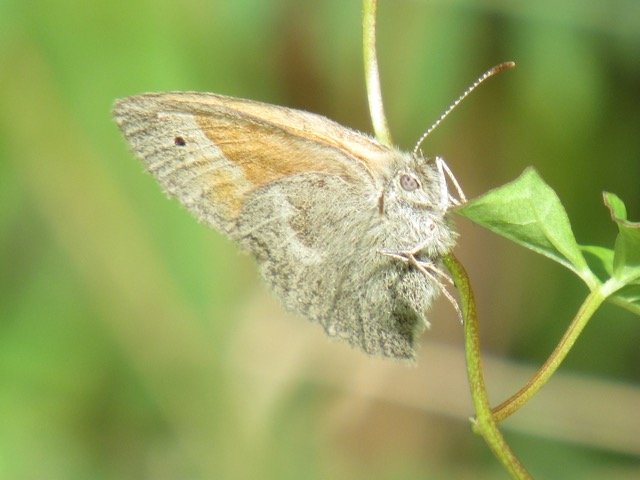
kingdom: Animalia
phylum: Arthropoda
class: Insecta
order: Lepidoptera
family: Nymphalidae
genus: Coenonympha
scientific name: Coenonympha tullia
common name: Large Heath
